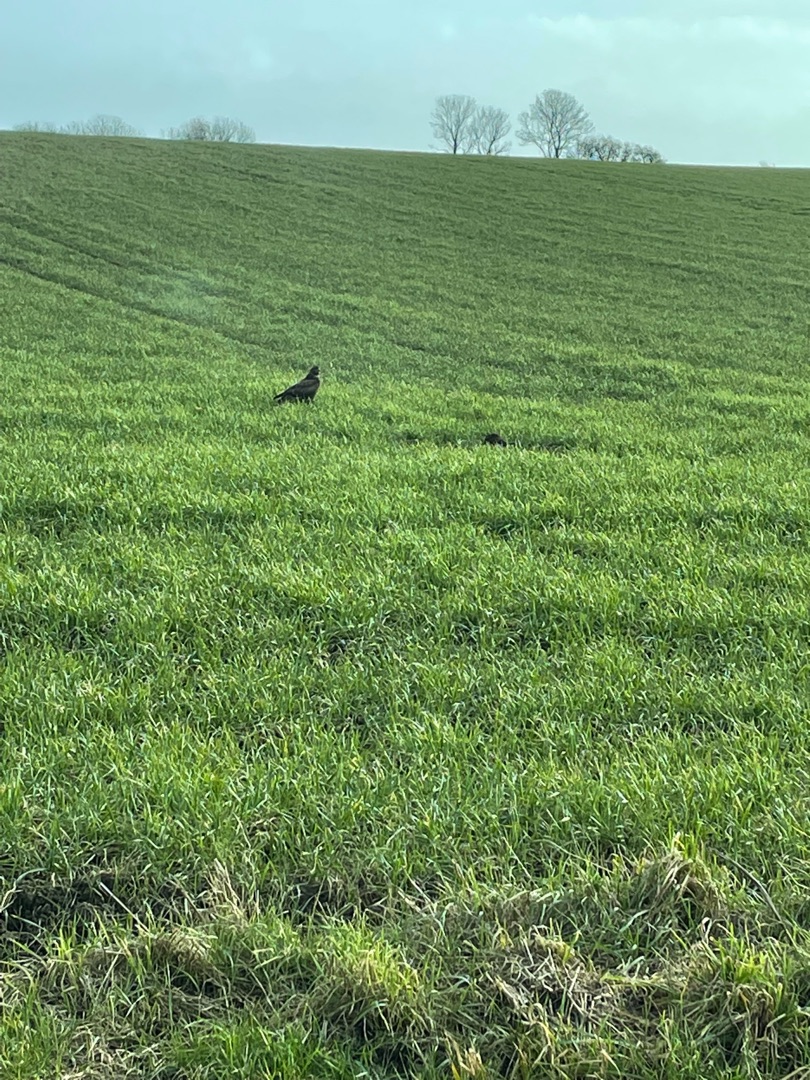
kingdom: Animalia
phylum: Chordata
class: Aves
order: Accipitriformes
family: Accipitridae
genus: Buteo
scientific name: Buteo buteo
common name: Musvåge
